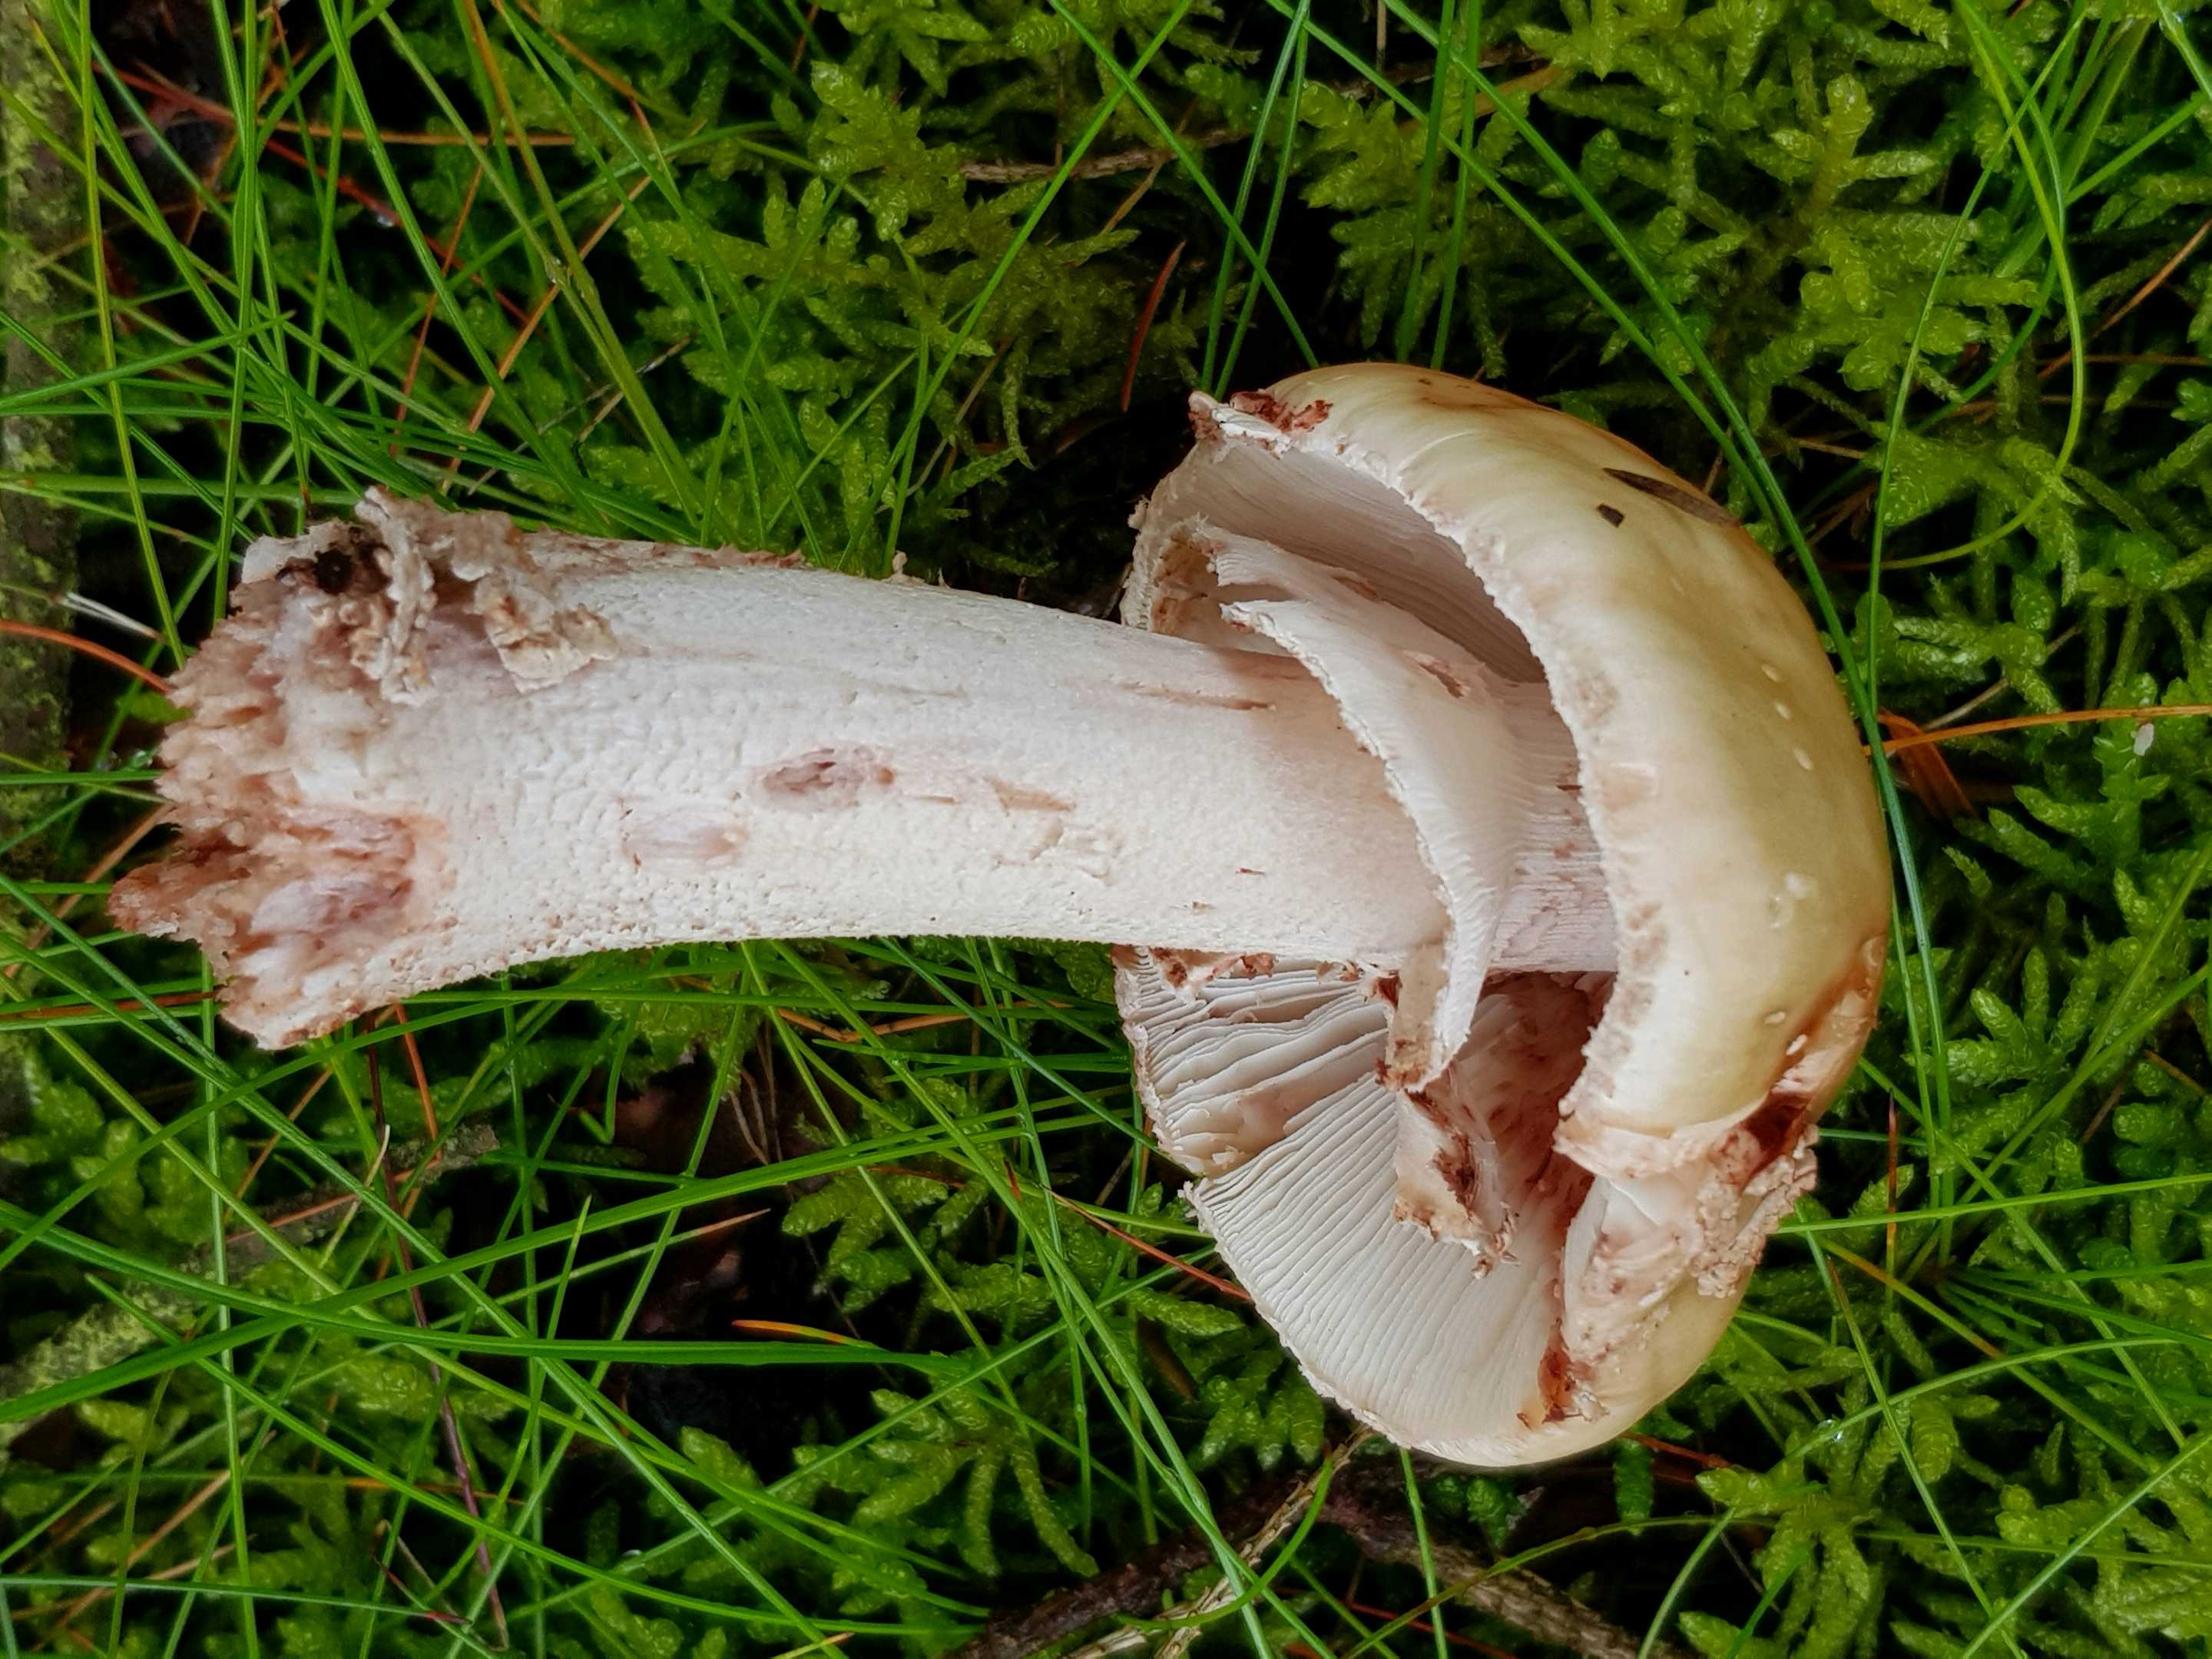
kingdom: Fungi
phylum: Basidiomycota
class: Agaricomycetes
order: Agaricales
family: Amanitaceae
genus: Amanita
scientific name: Amanita rubescens
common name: rødmende fluesvamp
